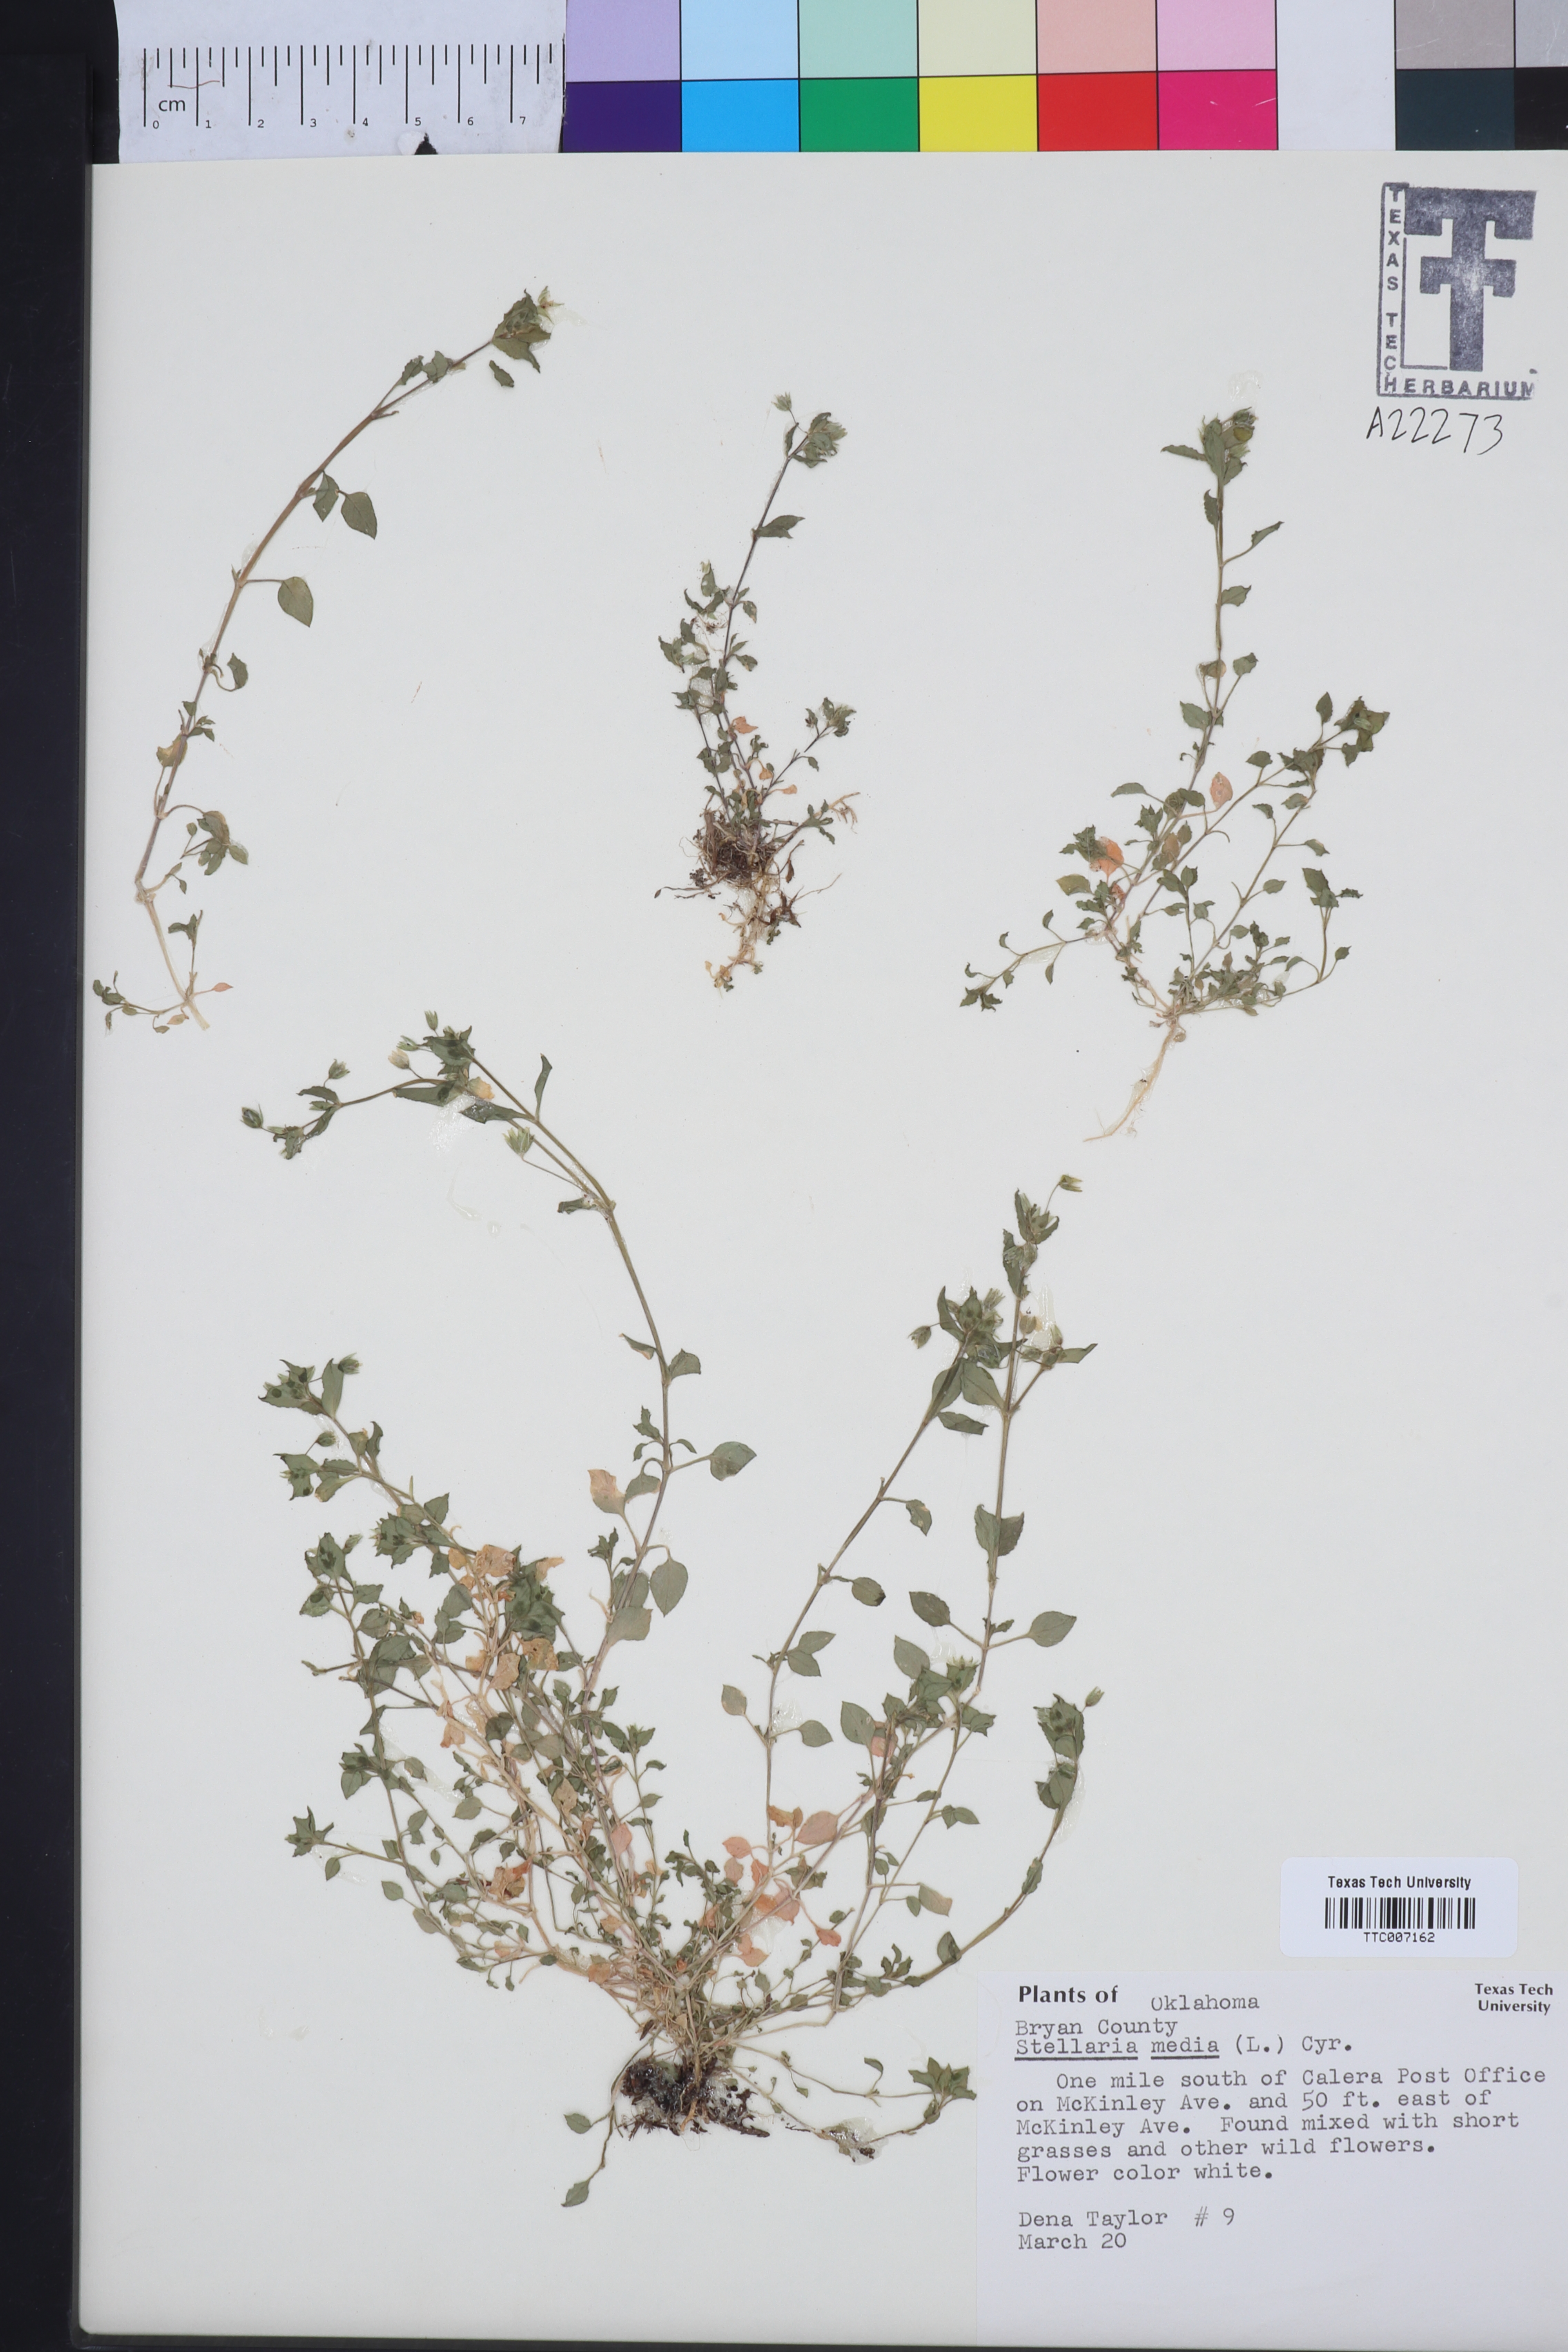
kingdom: Plantae
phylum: Tracheophyta
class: Magnoliopsida
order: Caryophyllales
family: Caryophyllaceae
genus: Stellaria
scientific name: Stellaria media
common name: Common chickweed
